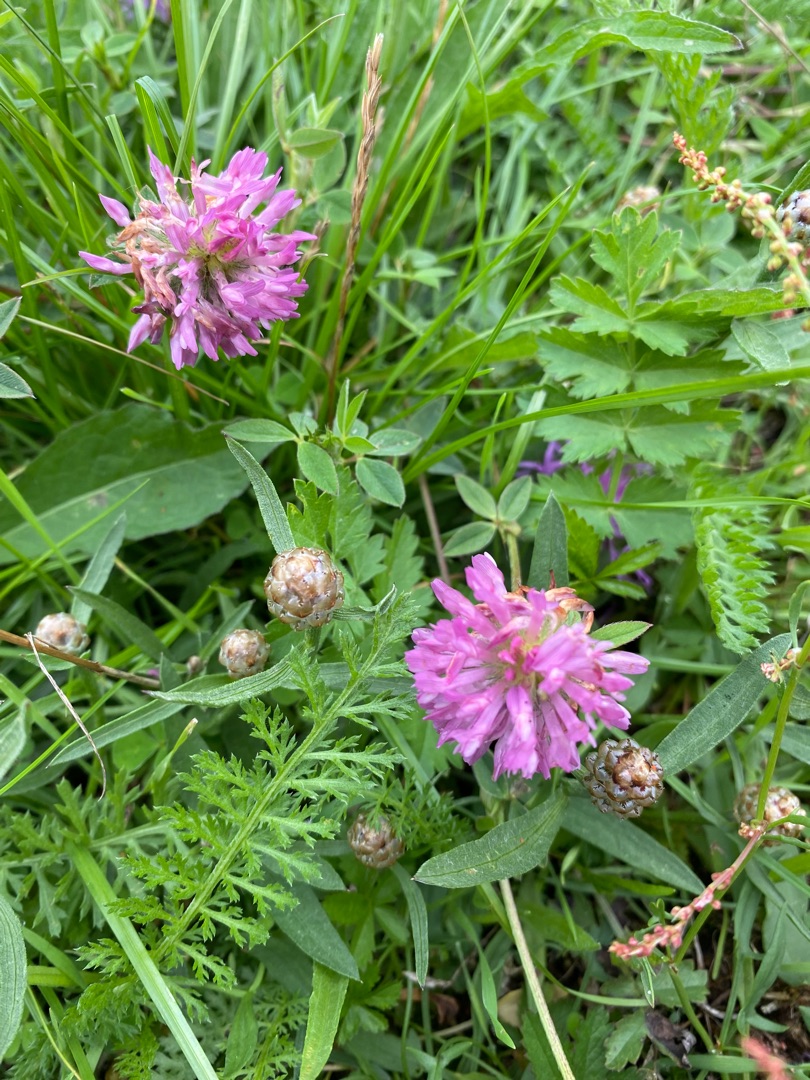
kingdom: Plantae
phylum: Tracheophyta
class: Magnoliopsida
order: Fabales
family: Fabaceae
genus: Trifolium
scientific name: Trifolium pratense
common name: Rød-kløver
